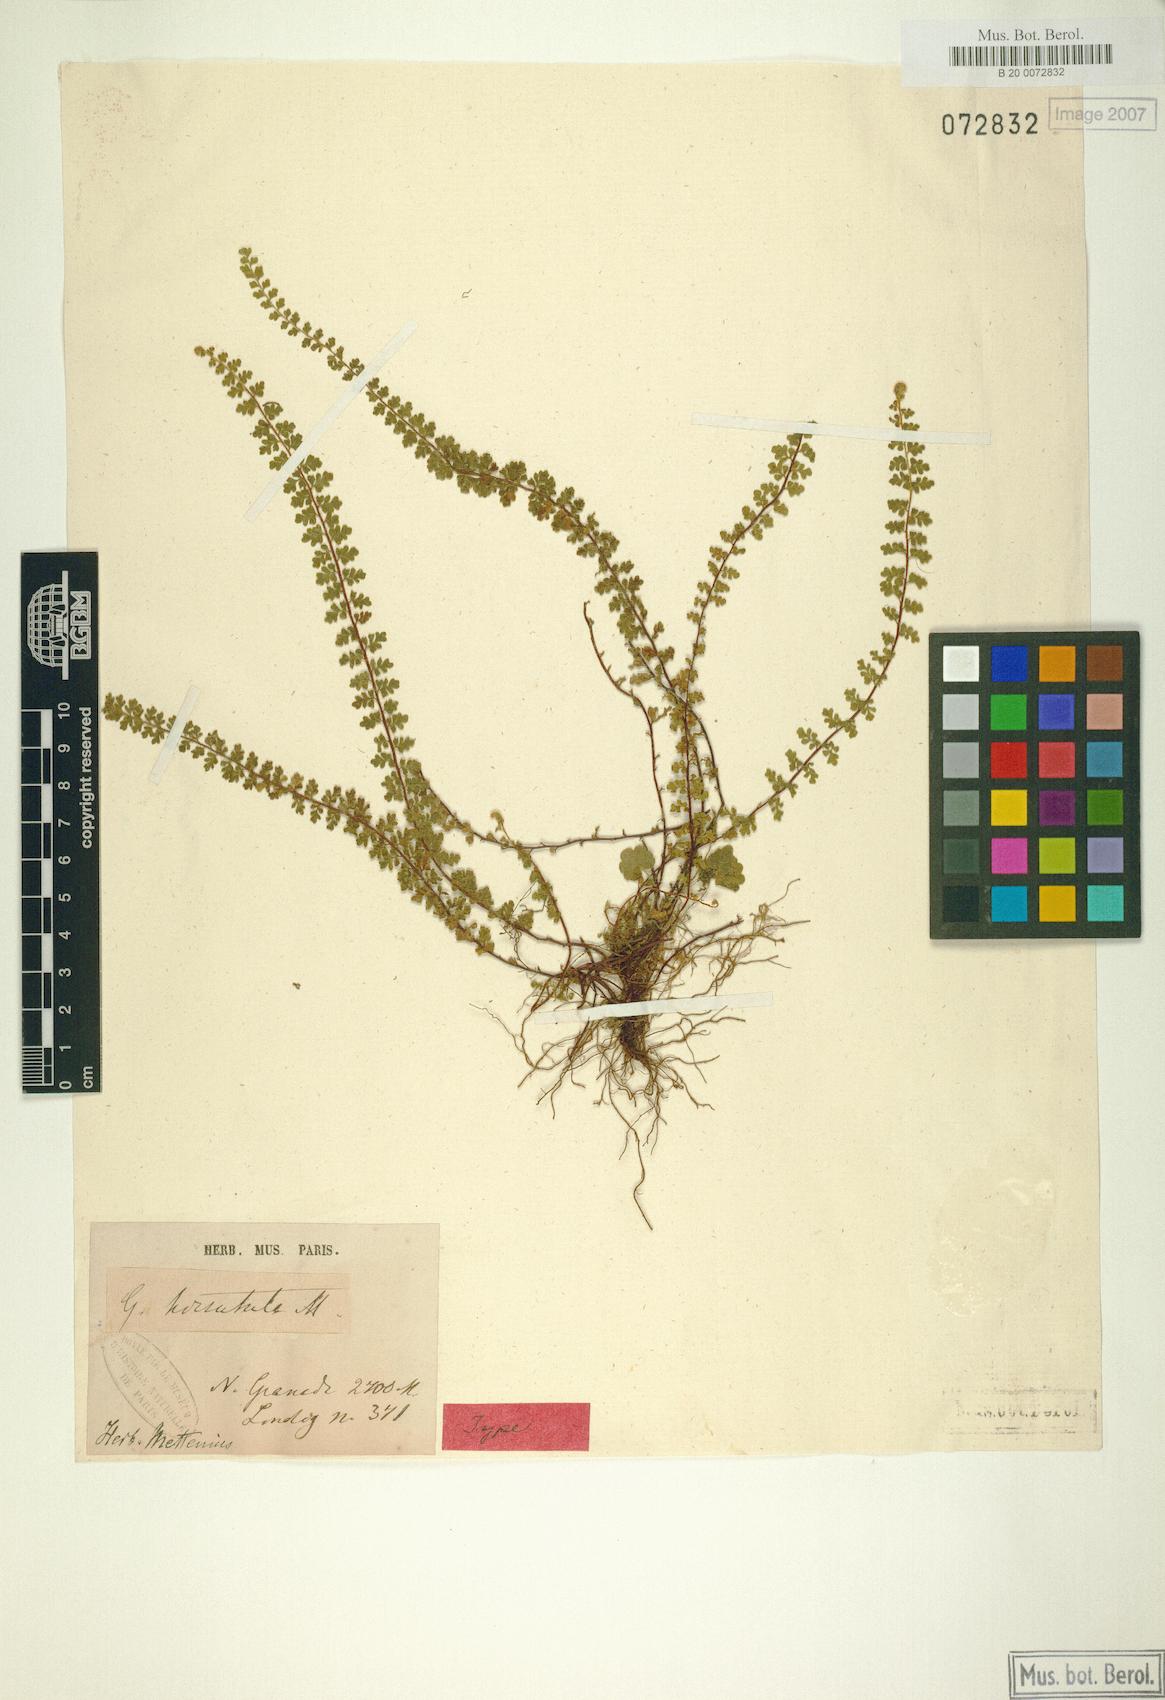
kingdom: Plantae
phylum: Tracheophyta
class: Polypodiopsida
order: Polypodiales
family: Pteridaceae
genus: Jamesonia
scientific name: Jamesonia hirsutula
